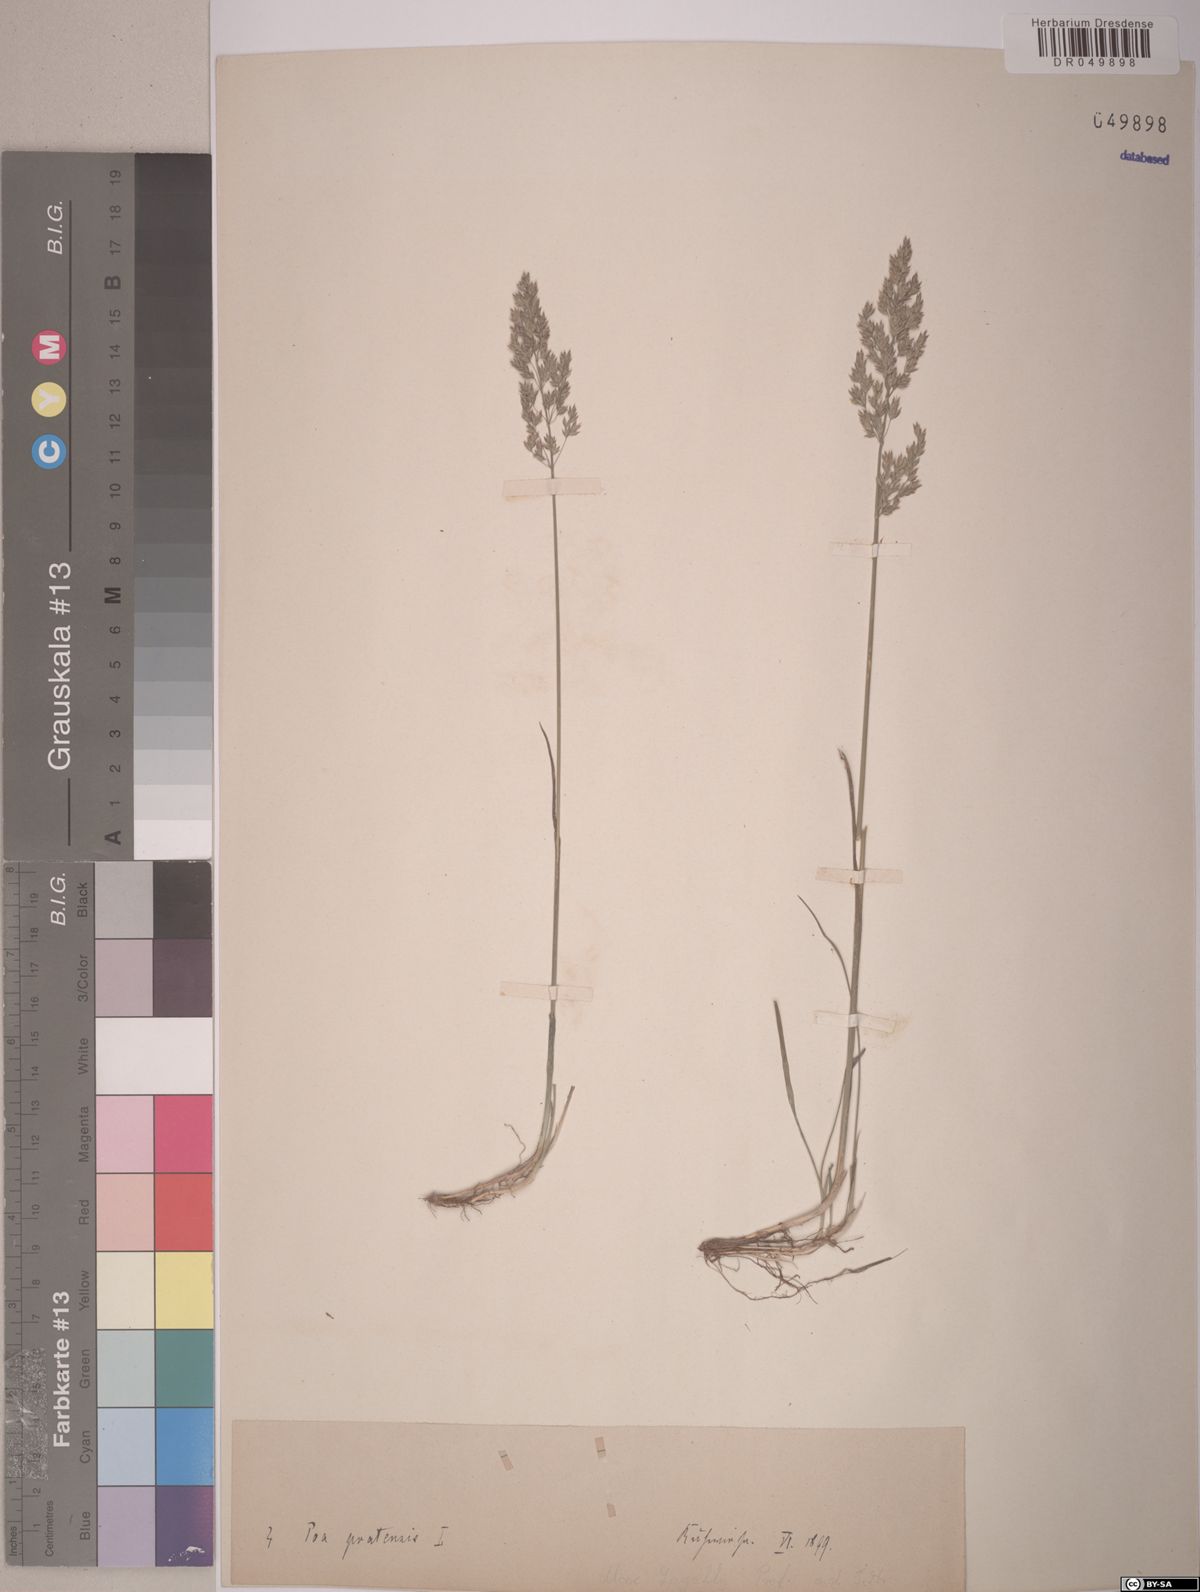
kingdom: Plantae
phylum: Tracheophyta
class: Liliopsida
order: Poales
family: Poaceae
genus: Poa
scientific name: Poa pratensis
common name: Kentucky bluegrass
